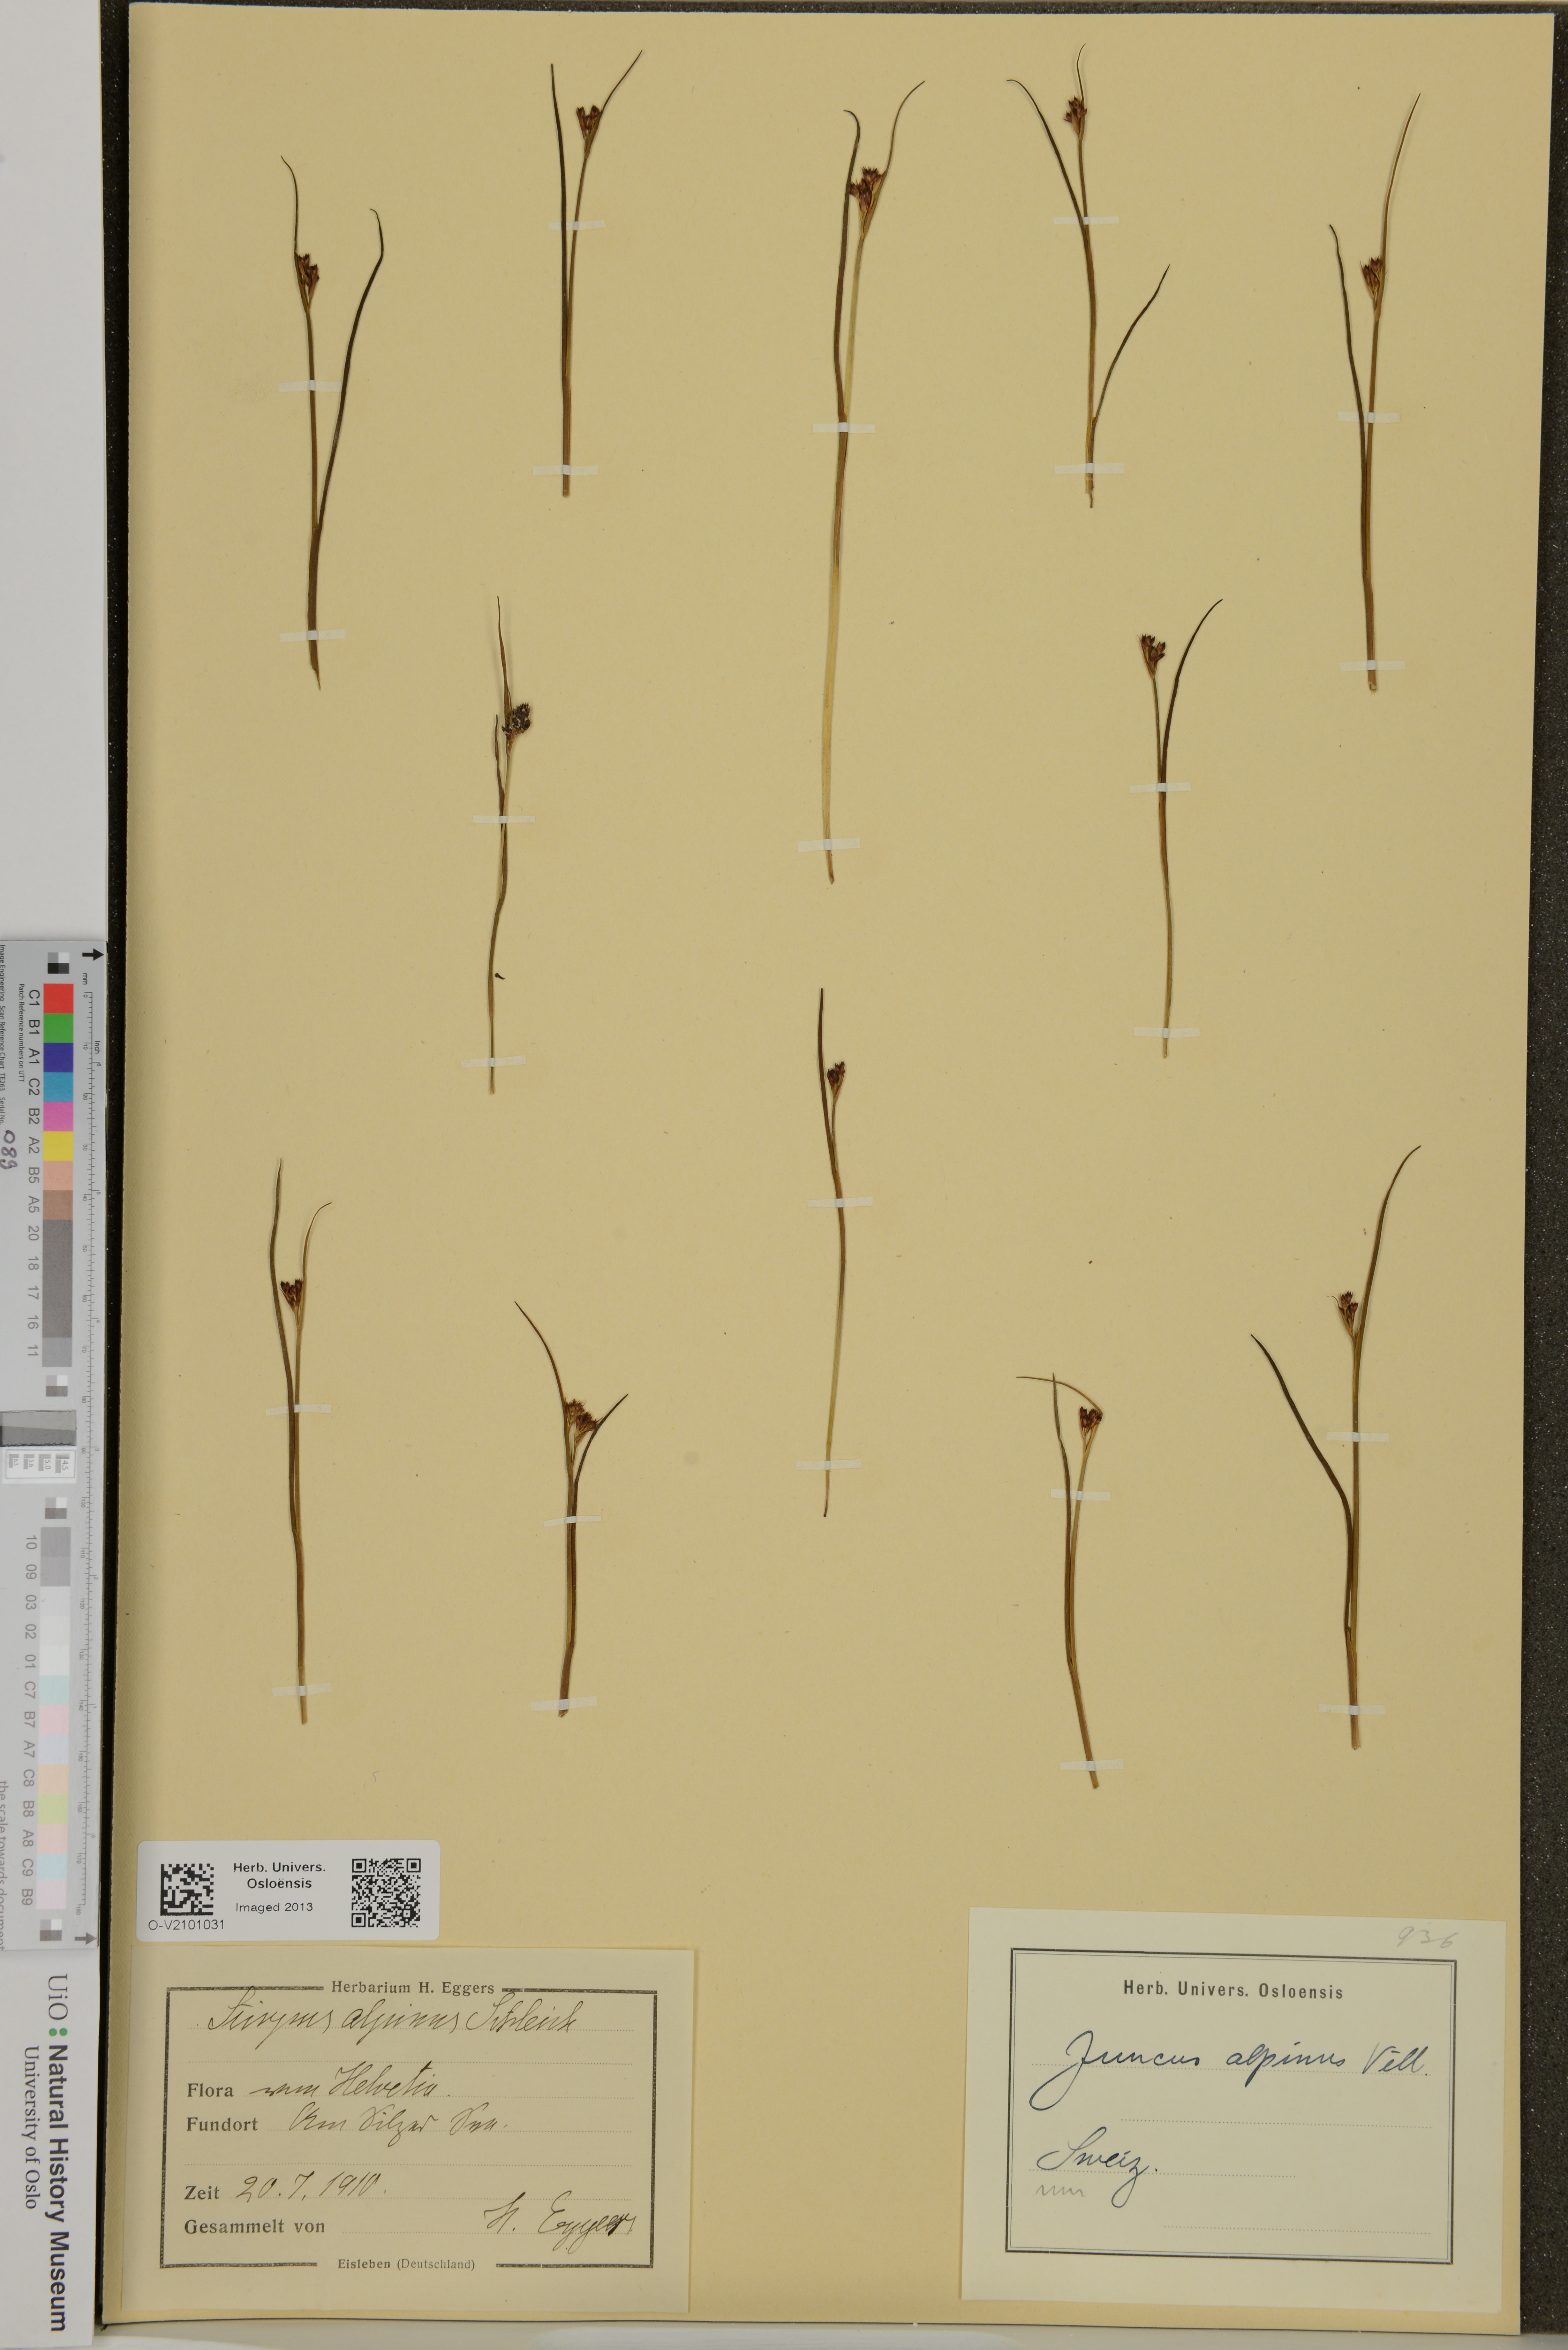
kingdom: Plantae
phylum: Tracheophyta
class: Liliopsida
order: Poales
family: Juncaceae
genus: Juncus
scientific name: Juncus alpinoarticulatus
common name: Alpine rush
